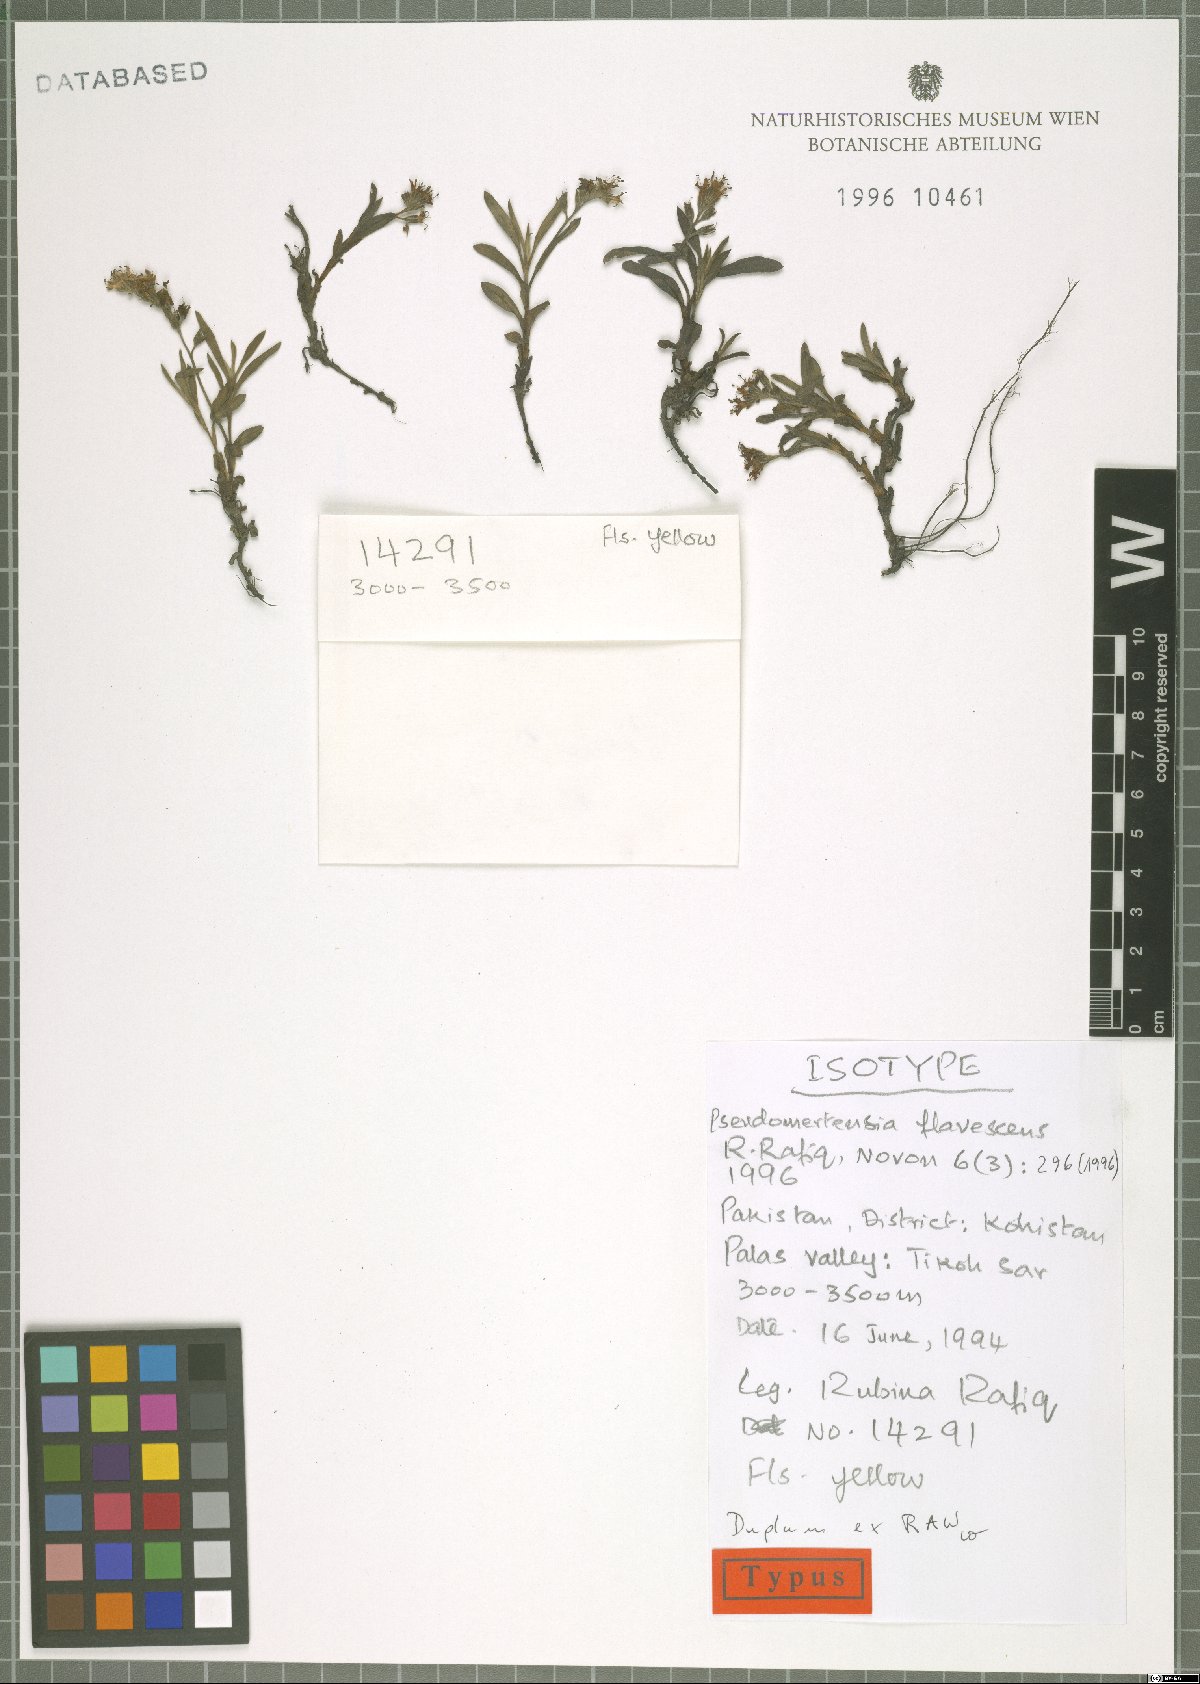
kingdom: Plantae
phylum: Tracheophyta
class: Magnoliopsida
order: Boraginales
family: Boraginaceae
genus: Decalepidanthus
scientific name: Decalepidanthus flavescens
